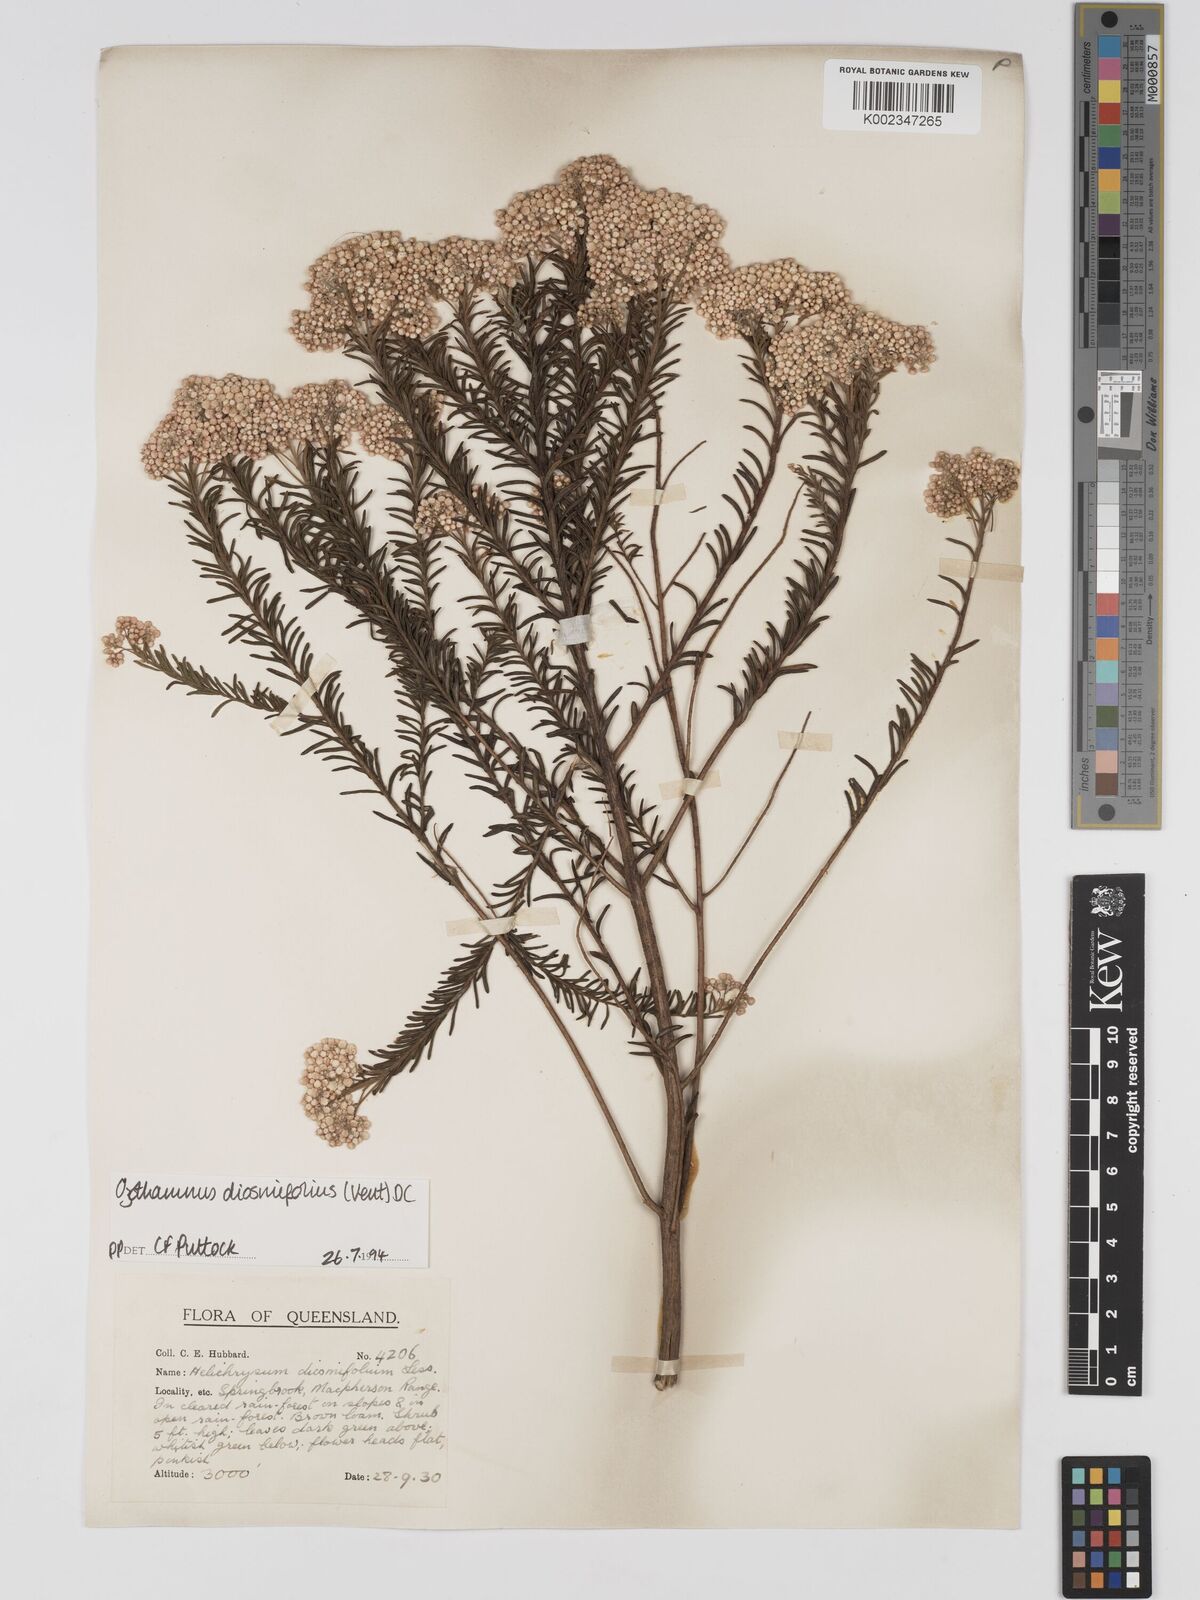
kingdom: Plantae
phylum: Tracheophyta
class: Magnoliopsida
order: Asterales
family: Asteraceae
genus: Ozothamnus
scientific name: Ozothamnus diosmifolius
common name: White-dogwood
